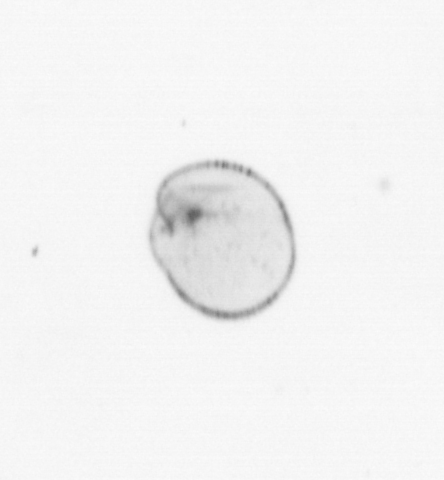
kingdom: Chromista
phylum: Myzozoa
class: Dinophyceae
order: Noctilucales
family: Noctilucaceae
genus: Noctiluca
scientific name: Noctiluca scintillans
